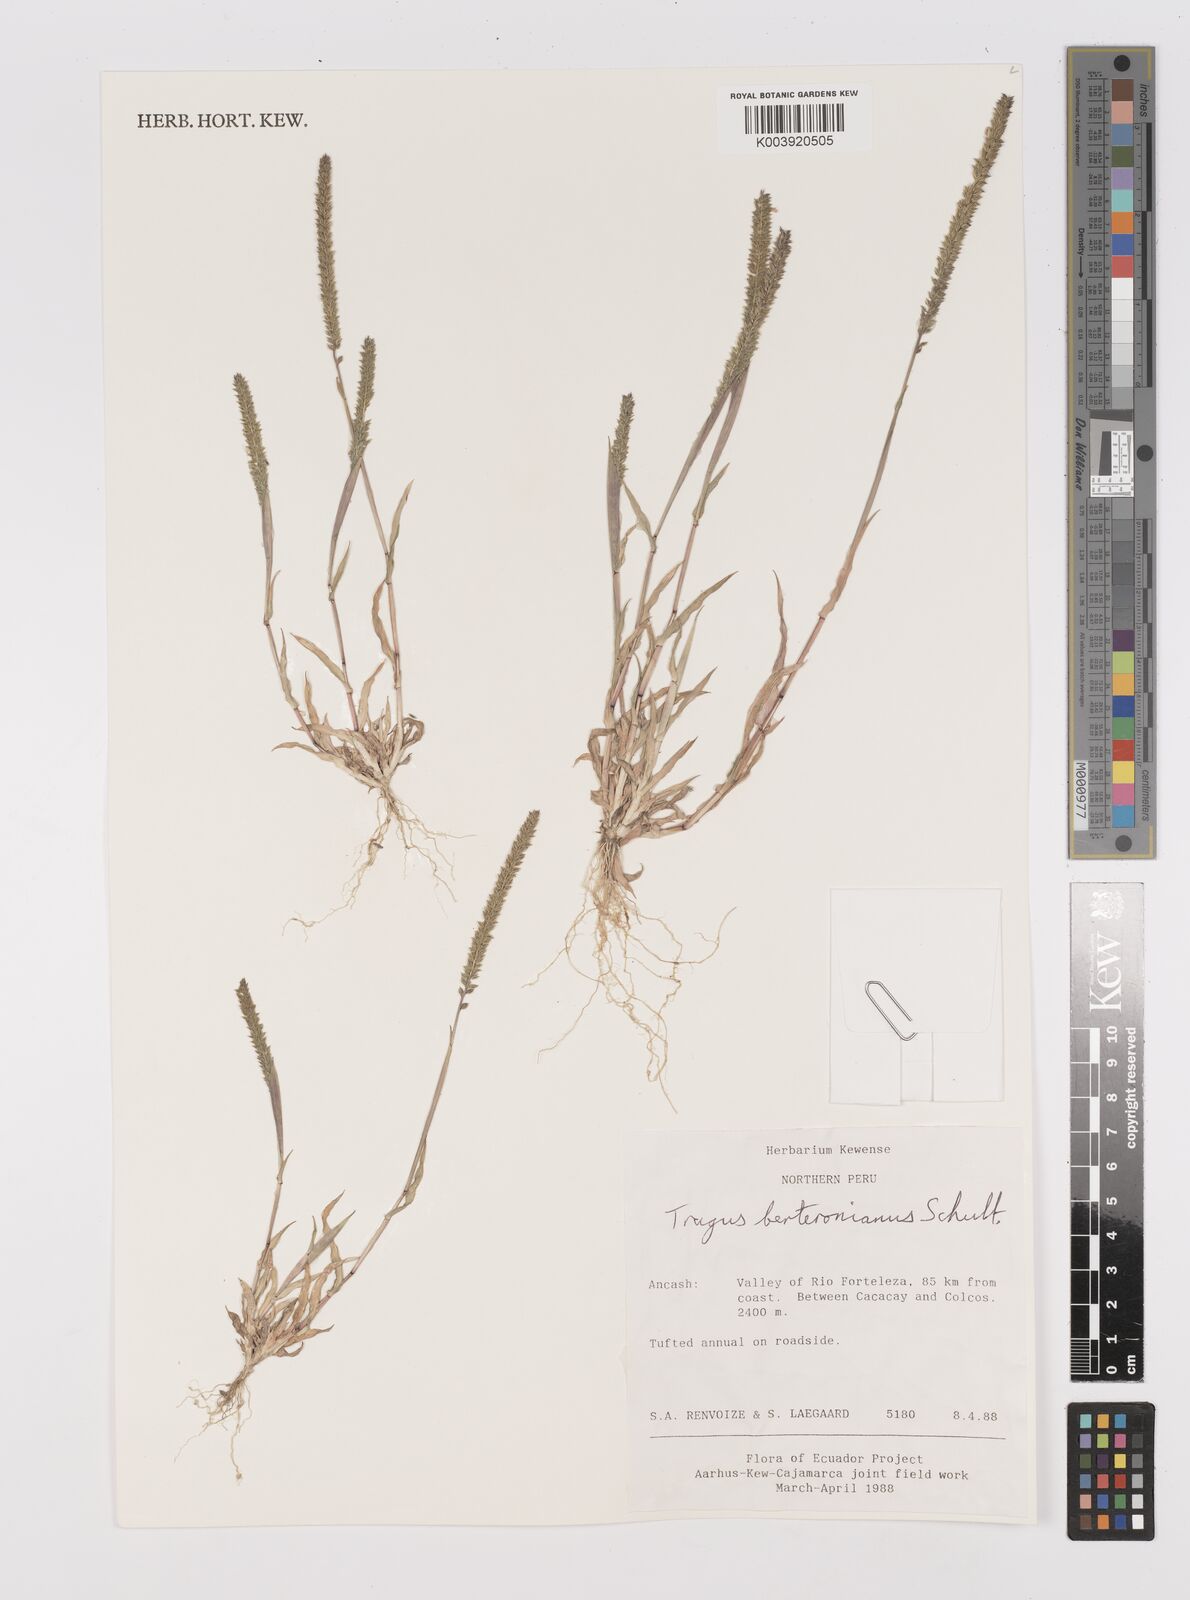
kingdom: Plantae
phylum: Tracheophyta
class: Liliopsida
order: Poales
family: Poaceae
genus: Tragus
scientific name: Tragus berteronianus
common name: African bur-grass
